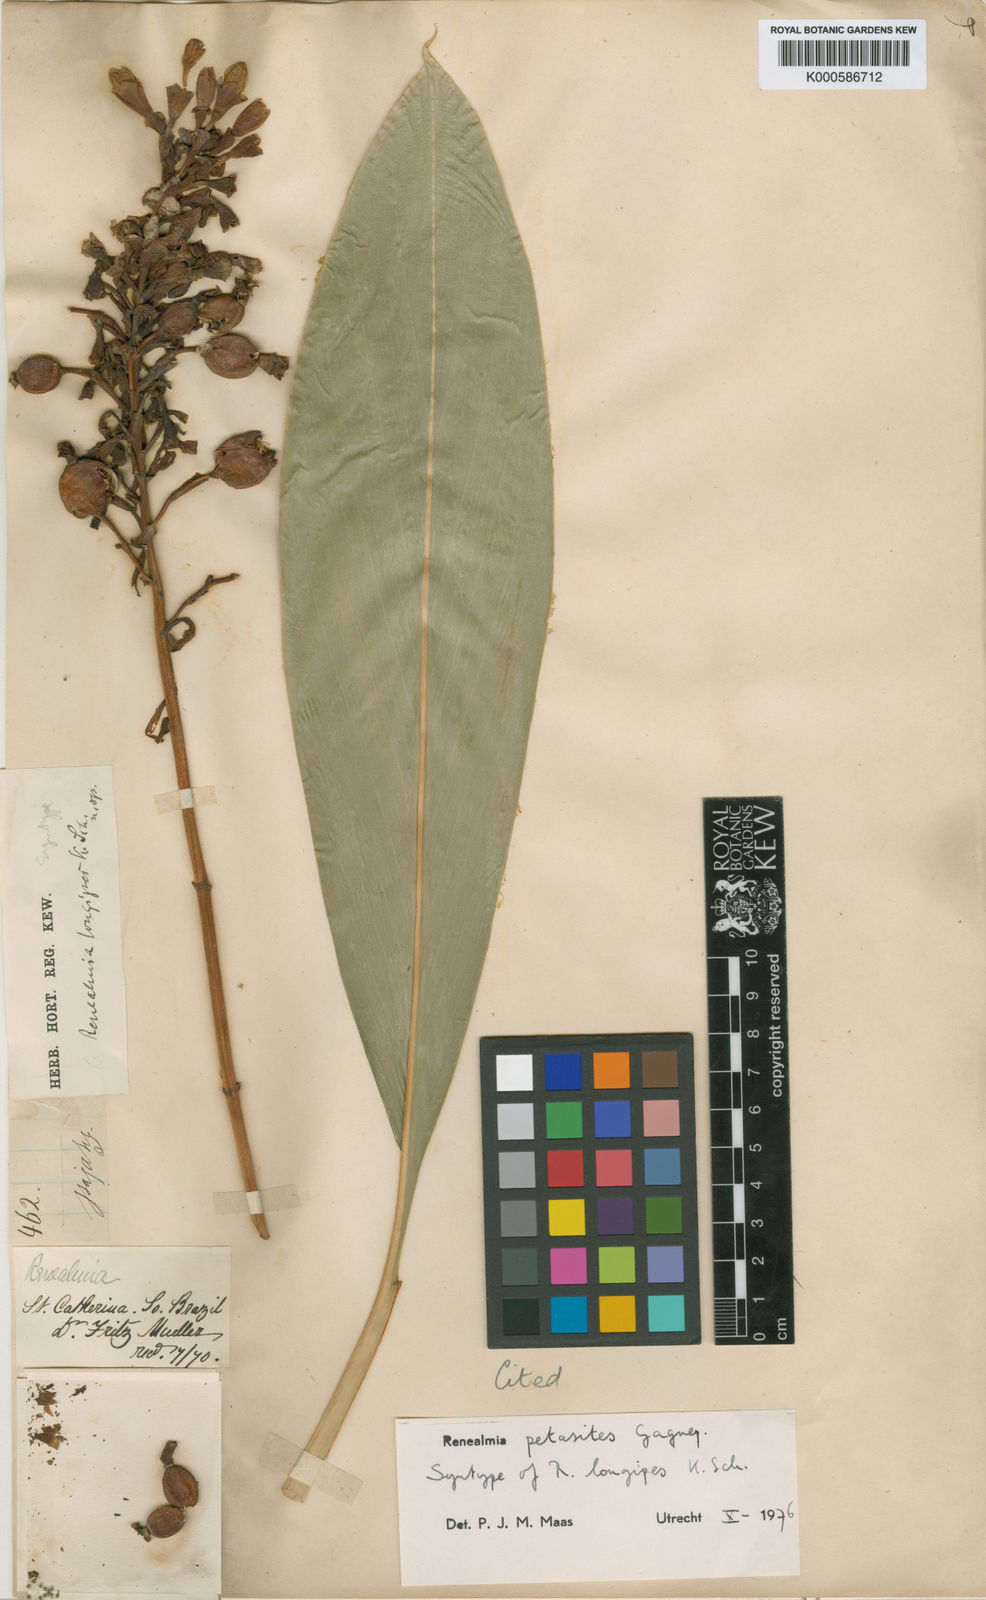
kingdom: Plantae
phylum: Tracheophyta
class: Liliopsida
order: Zingiberales
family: Zingiberaceae
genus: Renealmia
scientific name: Renealmia chrysotricha
